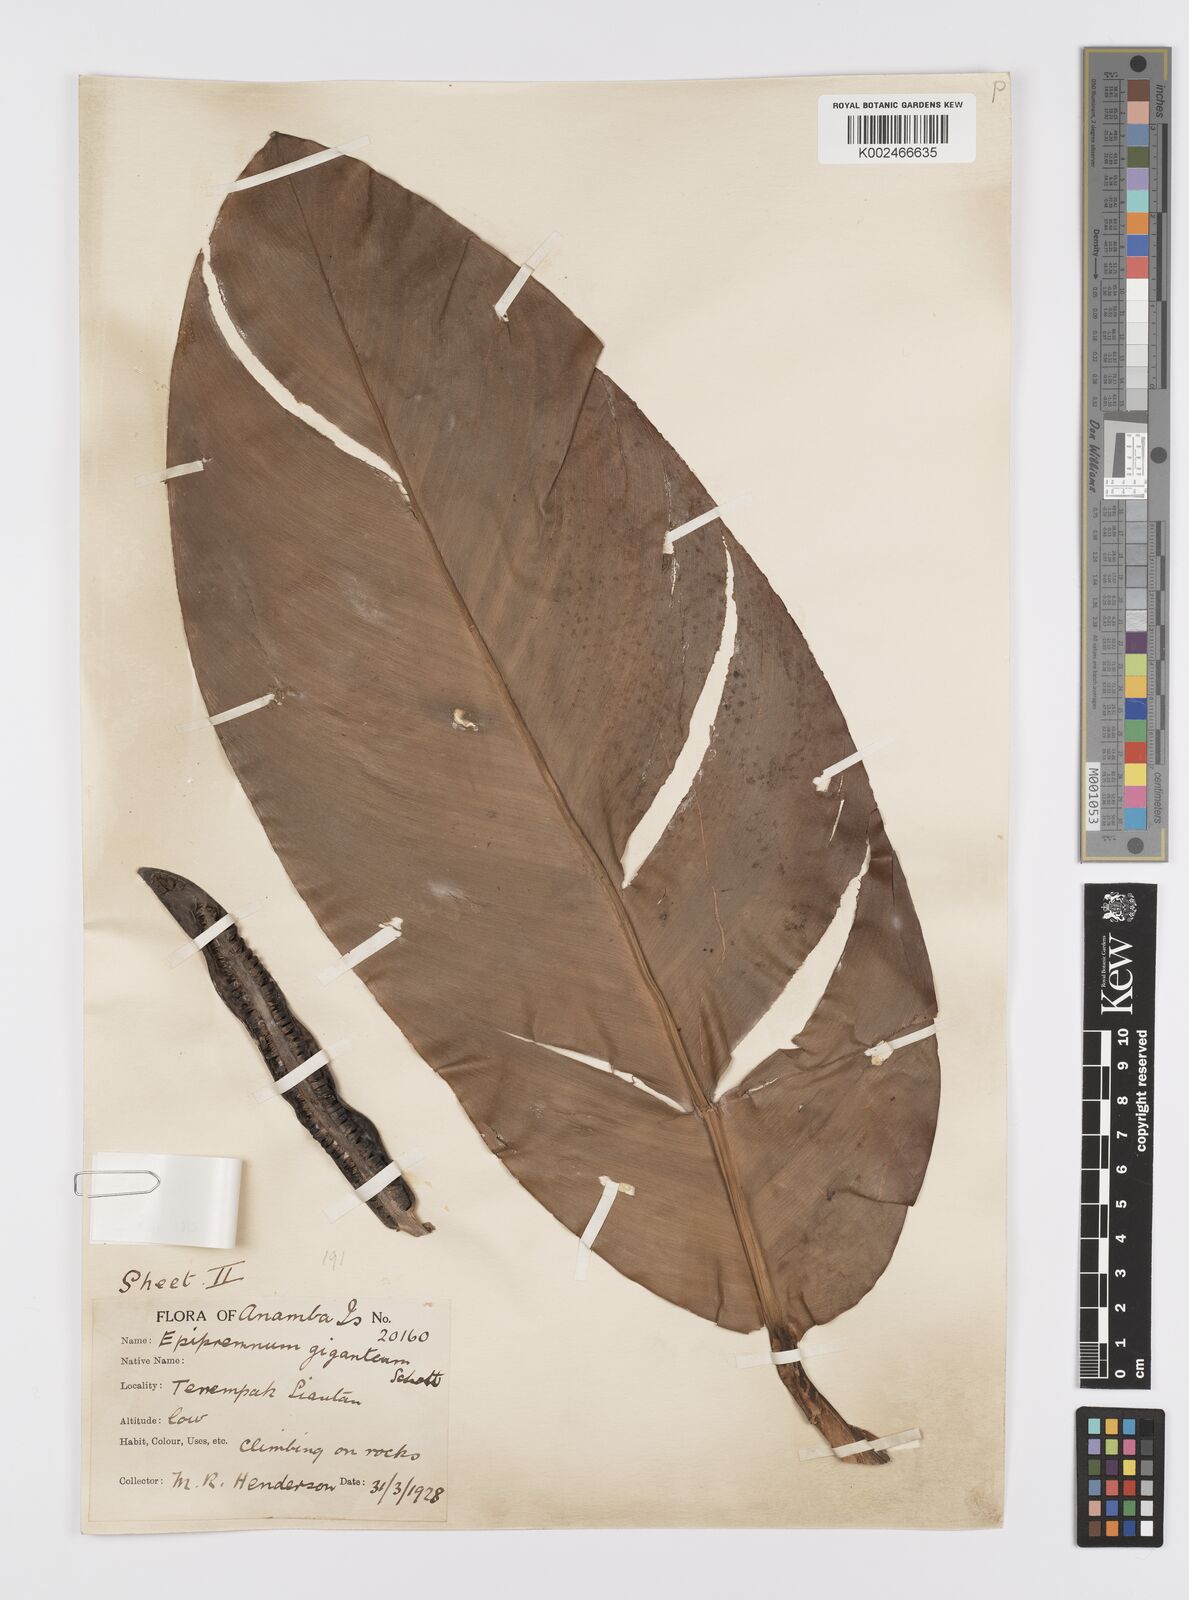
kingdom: Plantae
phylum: Tracheophyta
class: Liliopsida
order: Alismatales
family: Araceae
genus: Scindapsus
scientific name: Scindapsus
